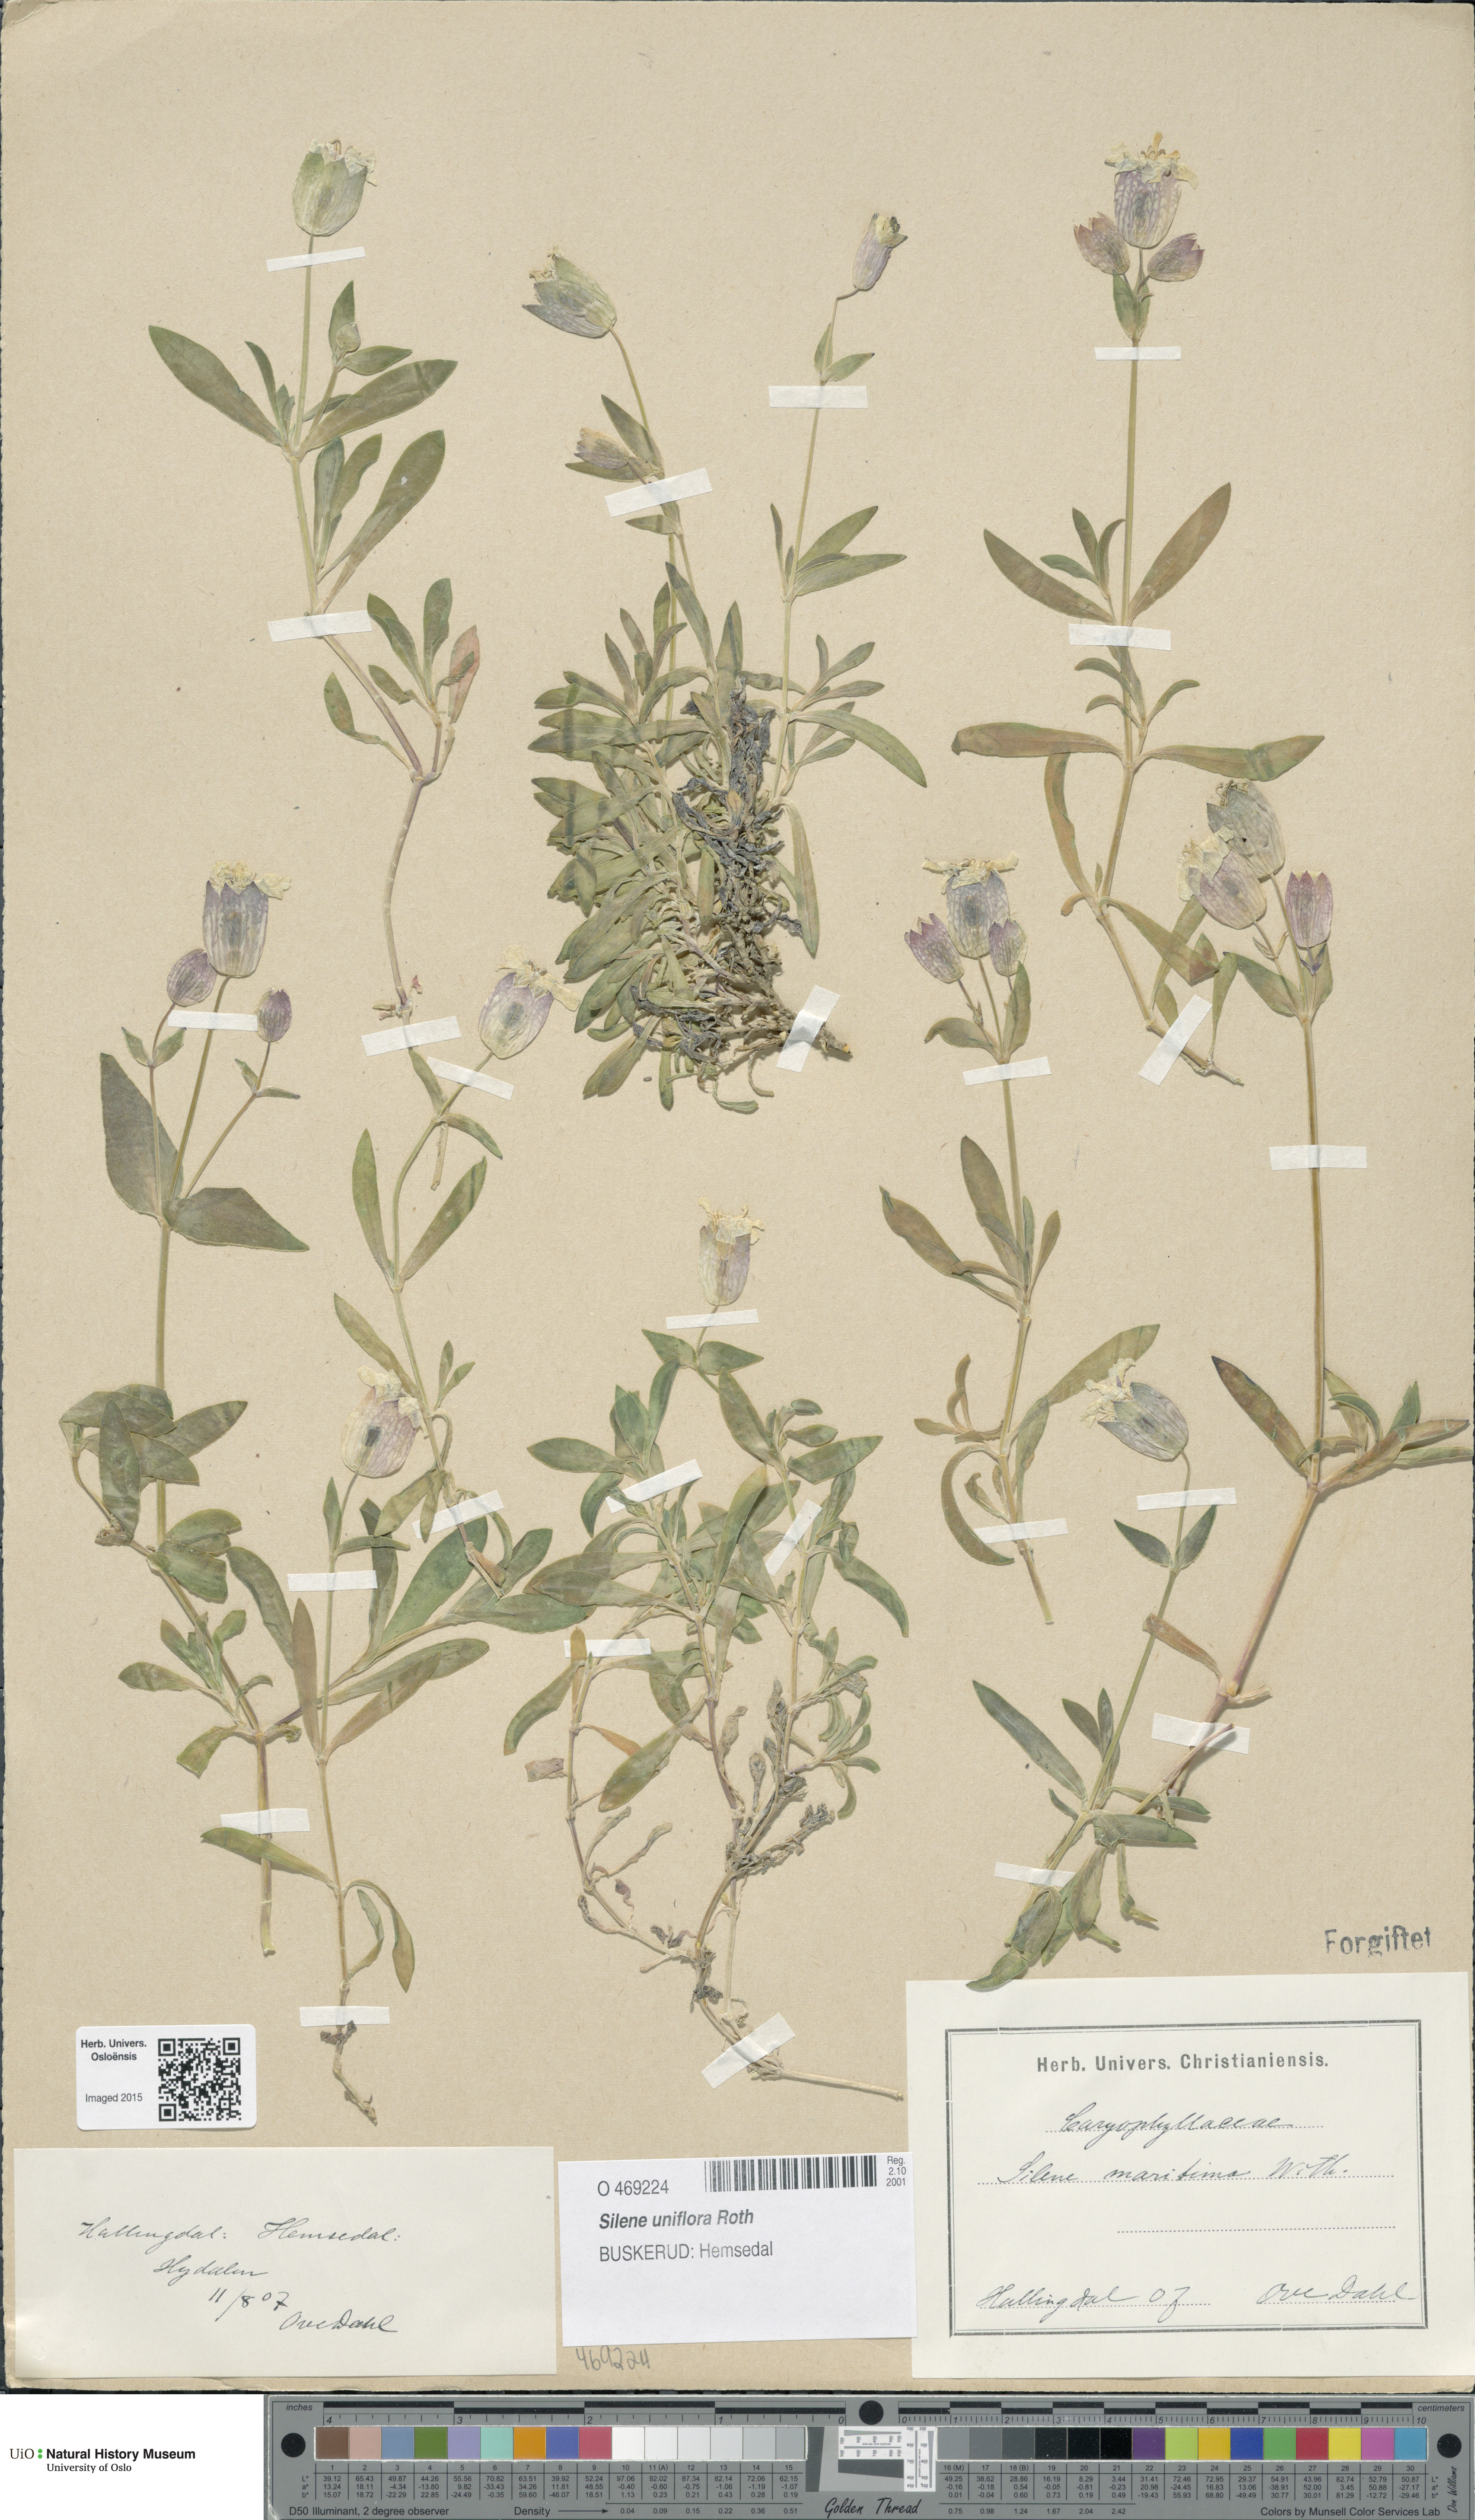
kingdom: Plantae
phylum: Tracheophyta
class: Magnoliopsida
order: Caryophyllales
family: Caryophyllaceae
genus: Silene
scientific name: Silene uniflora
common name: Sea campion
